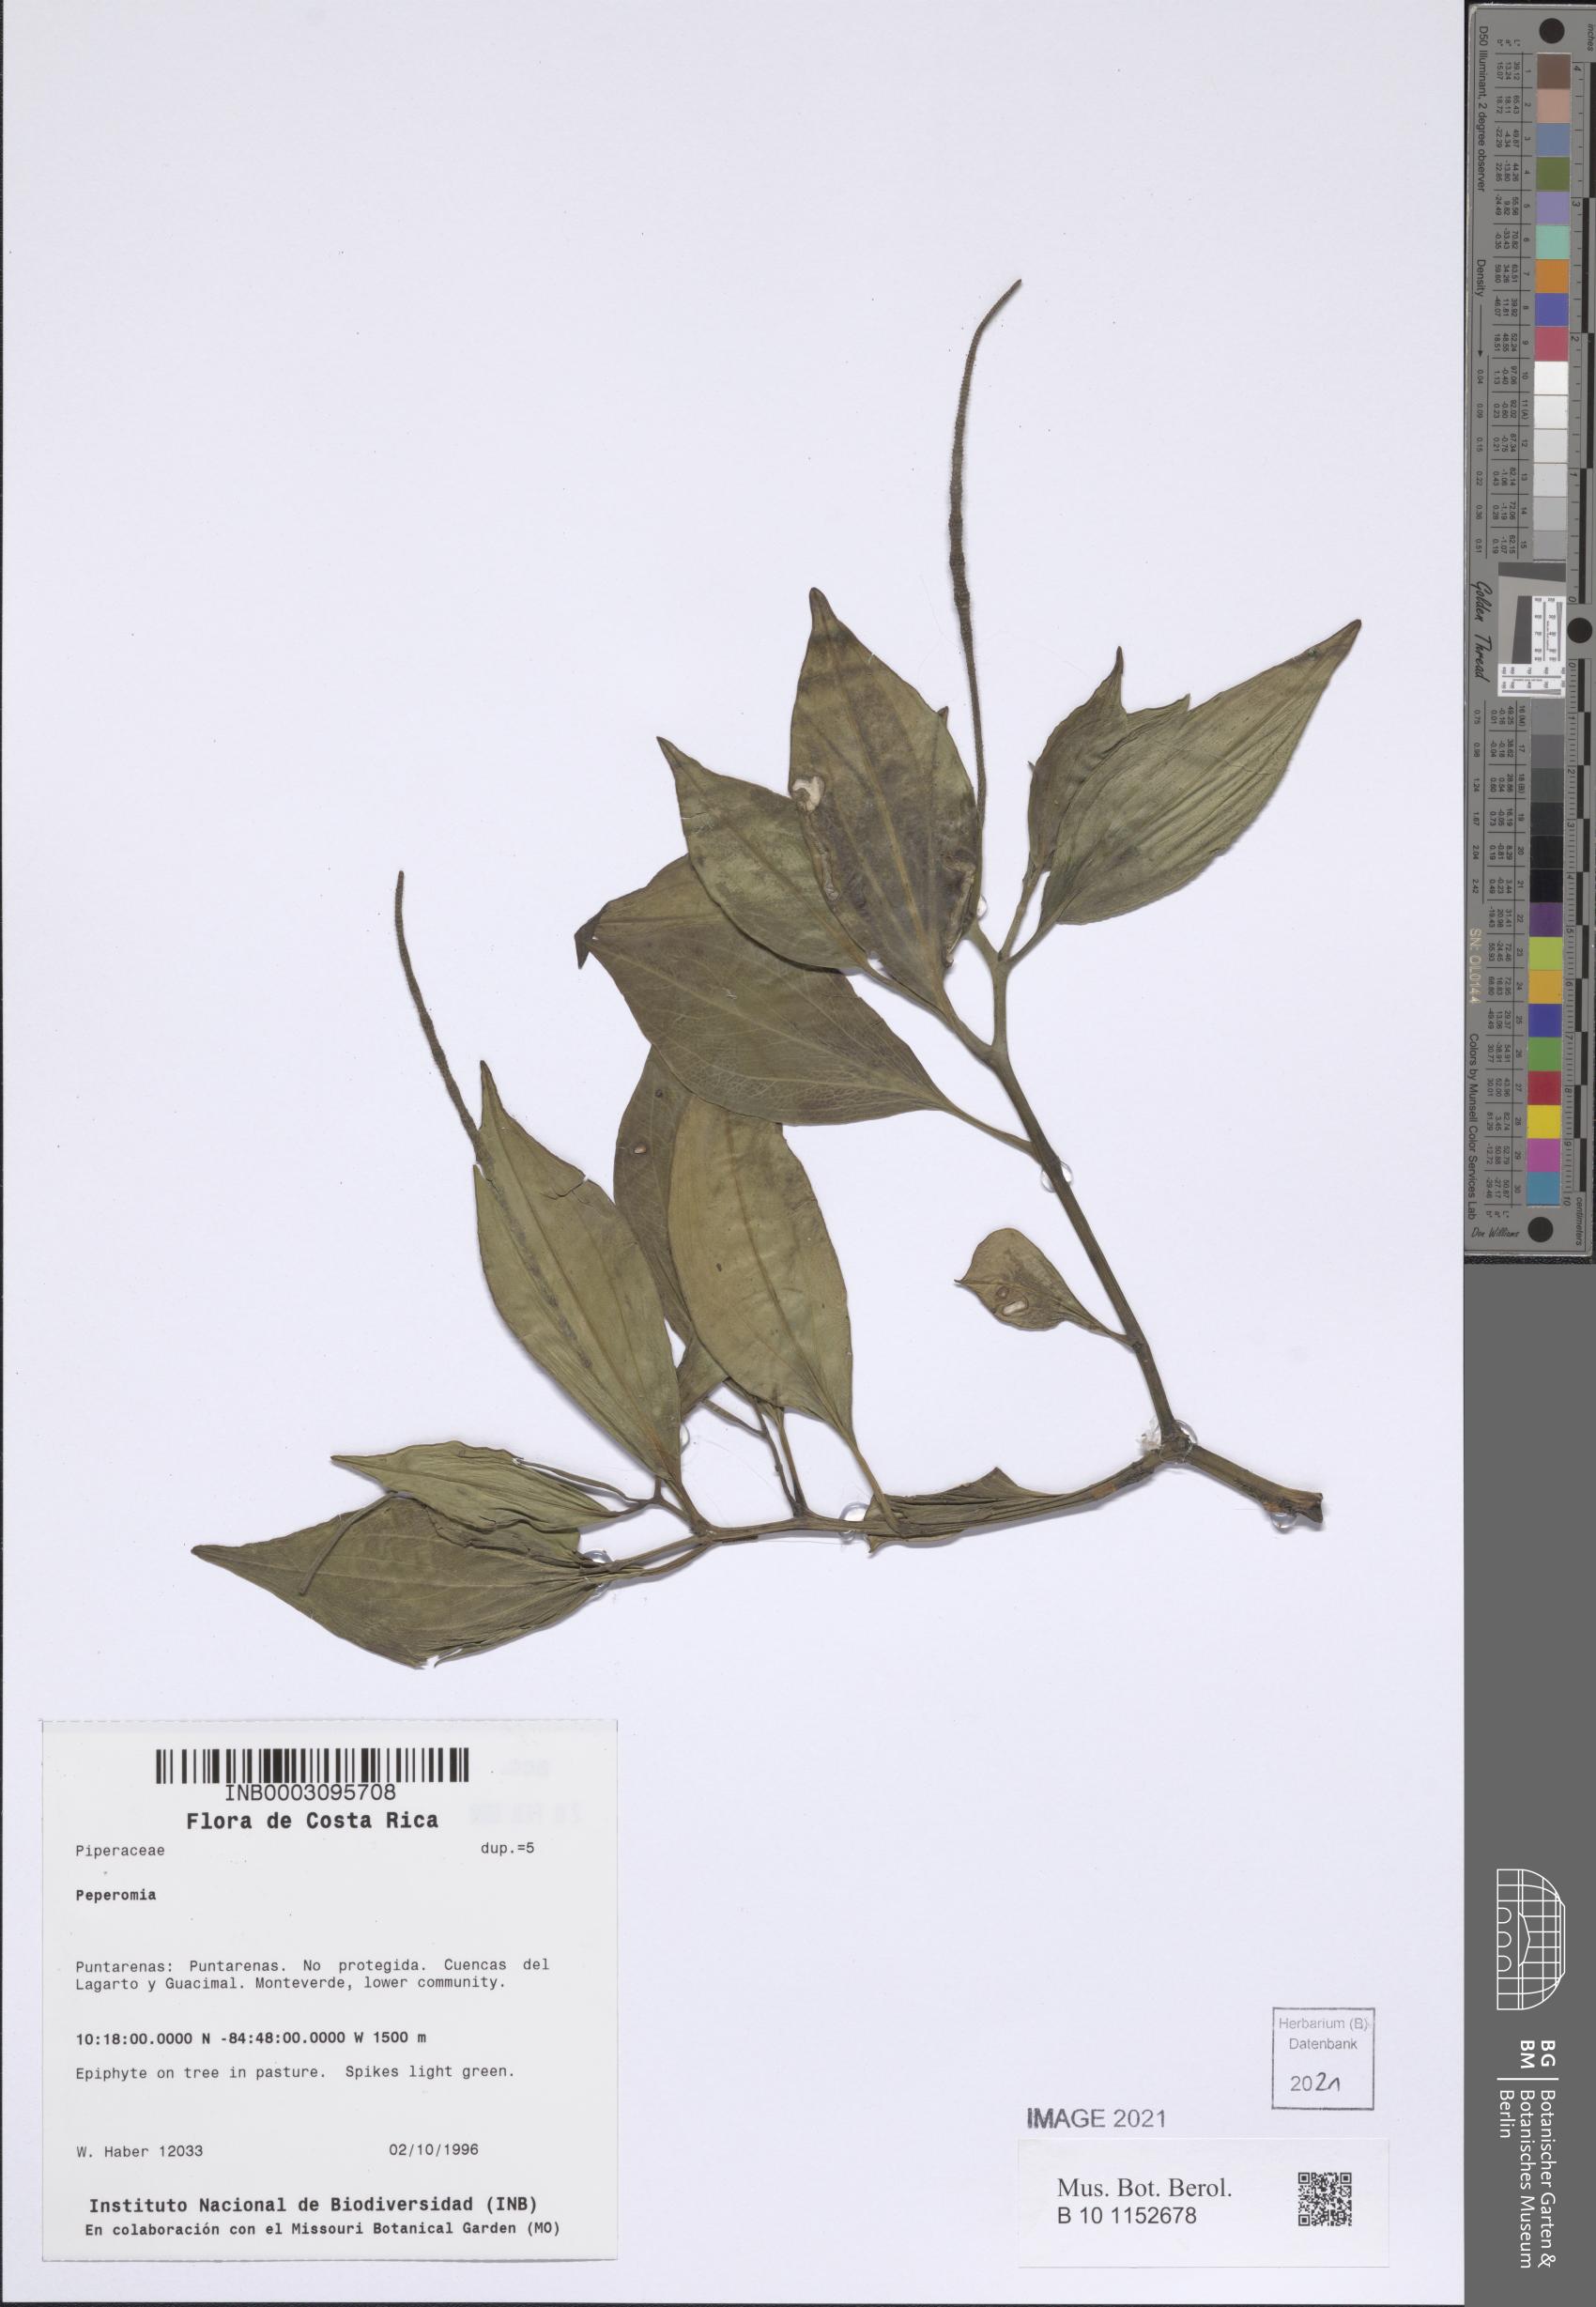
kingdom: Plantae
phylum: Tracheophyta
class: Magnoliopsida
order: Piperales
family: Piperaceae
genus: Peperomia
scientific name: Peperomia
